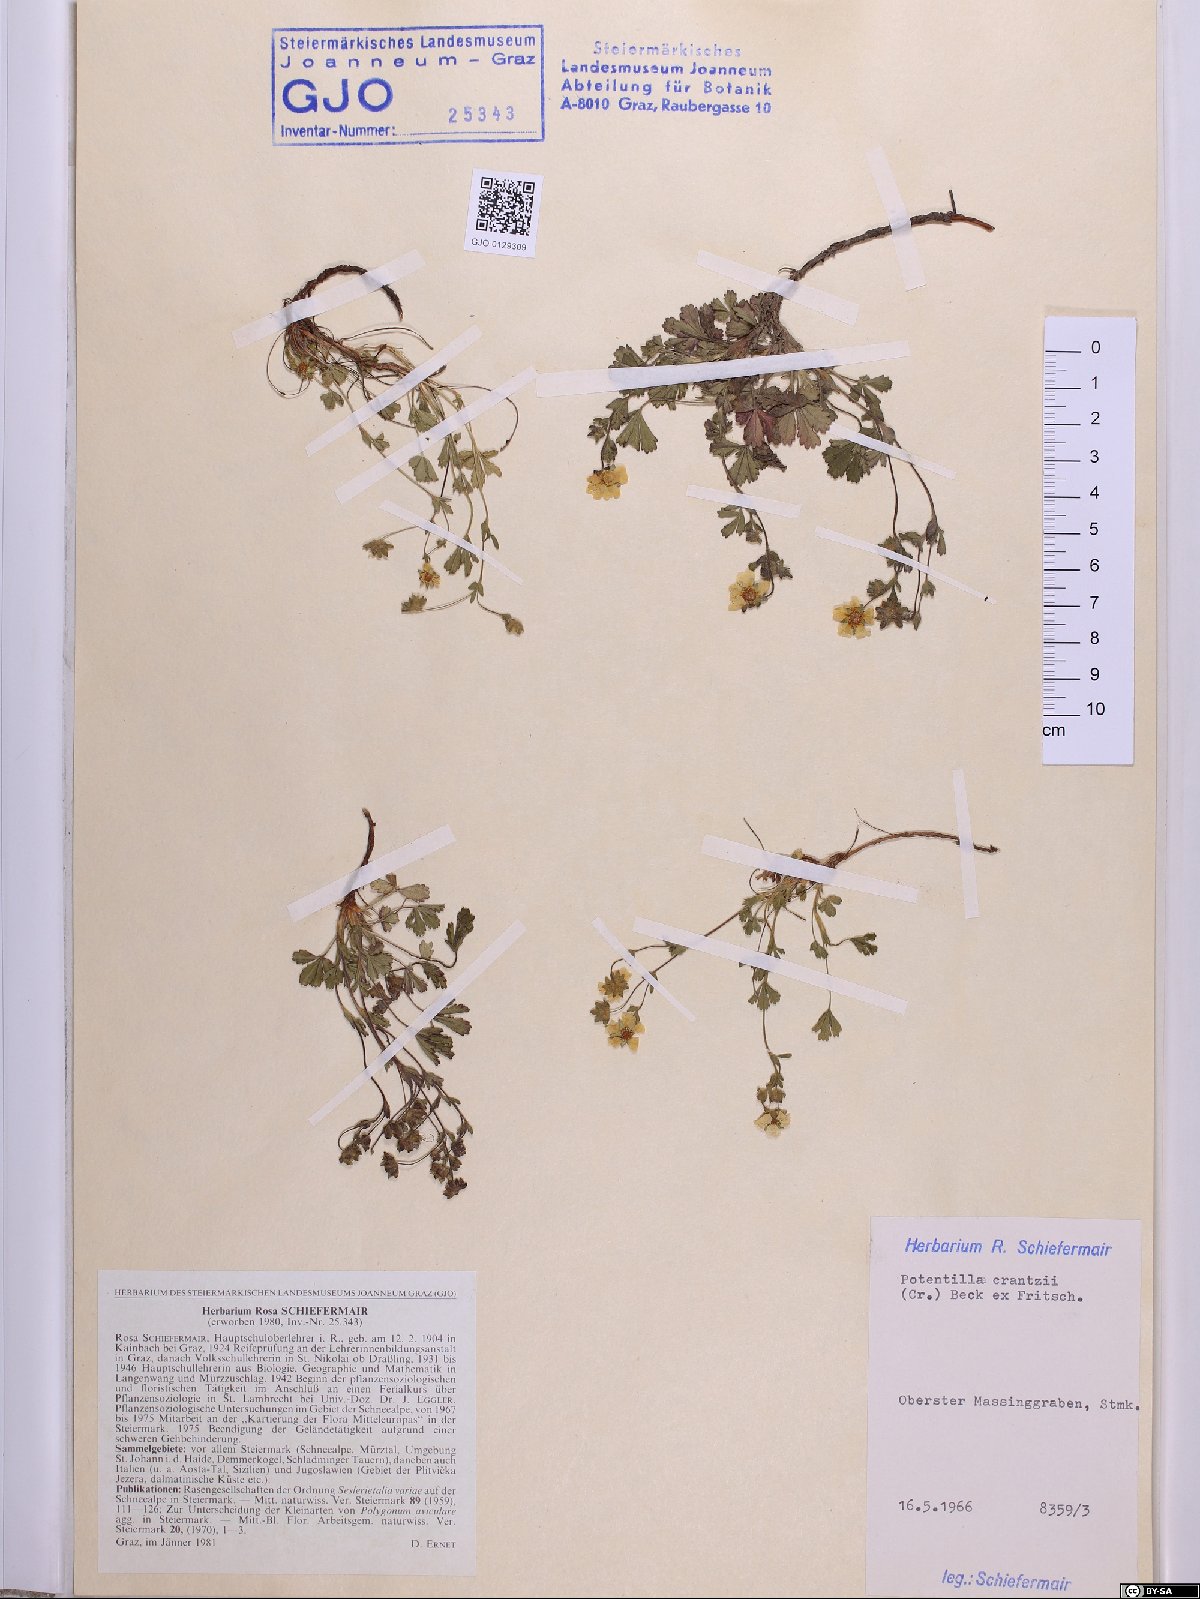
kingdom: Plantae
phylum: Tracheophyta
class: Magnoliopsida
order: Rosales
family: Rosaceae
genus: Potentilla
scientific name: Potentilla crantzii
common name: Alpine cinquefoil
